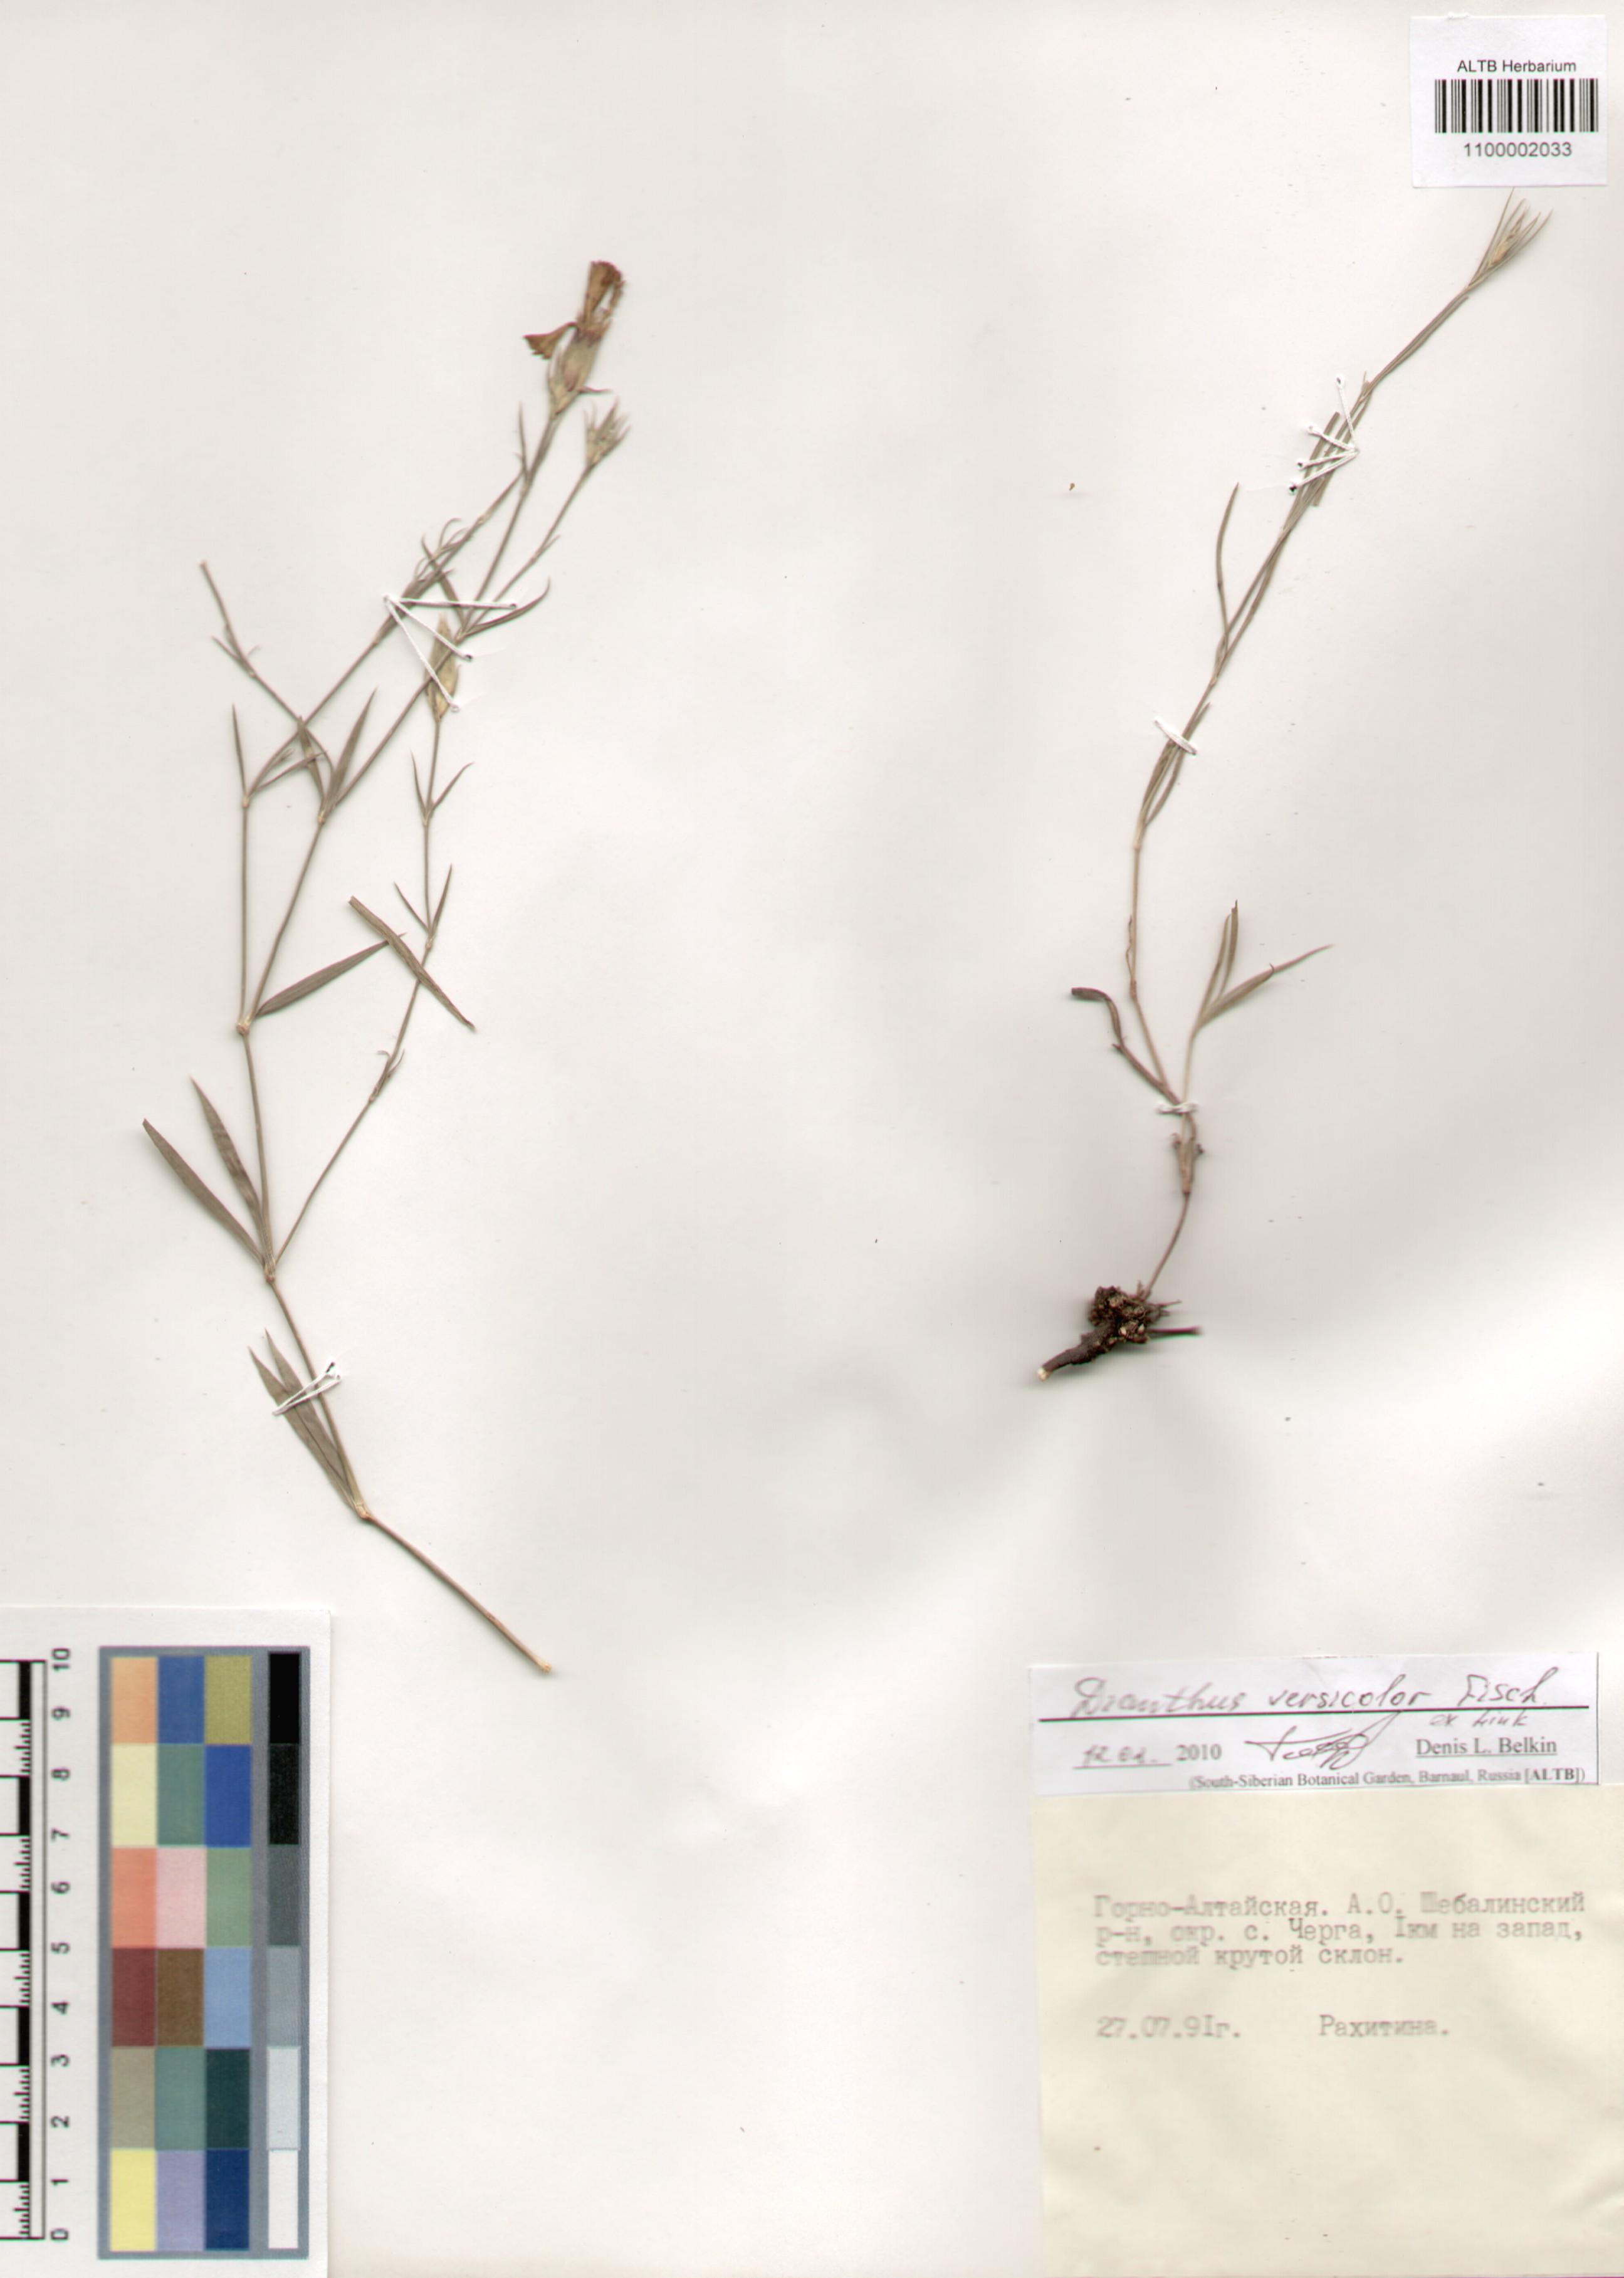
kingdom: Plantae
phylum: Tracheophyta
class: Magnoliopsida
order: Caryophyllales
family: Caryophyllaceae
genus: Dianthus
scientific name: Dianthus chinensis
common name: Rainbow pink
